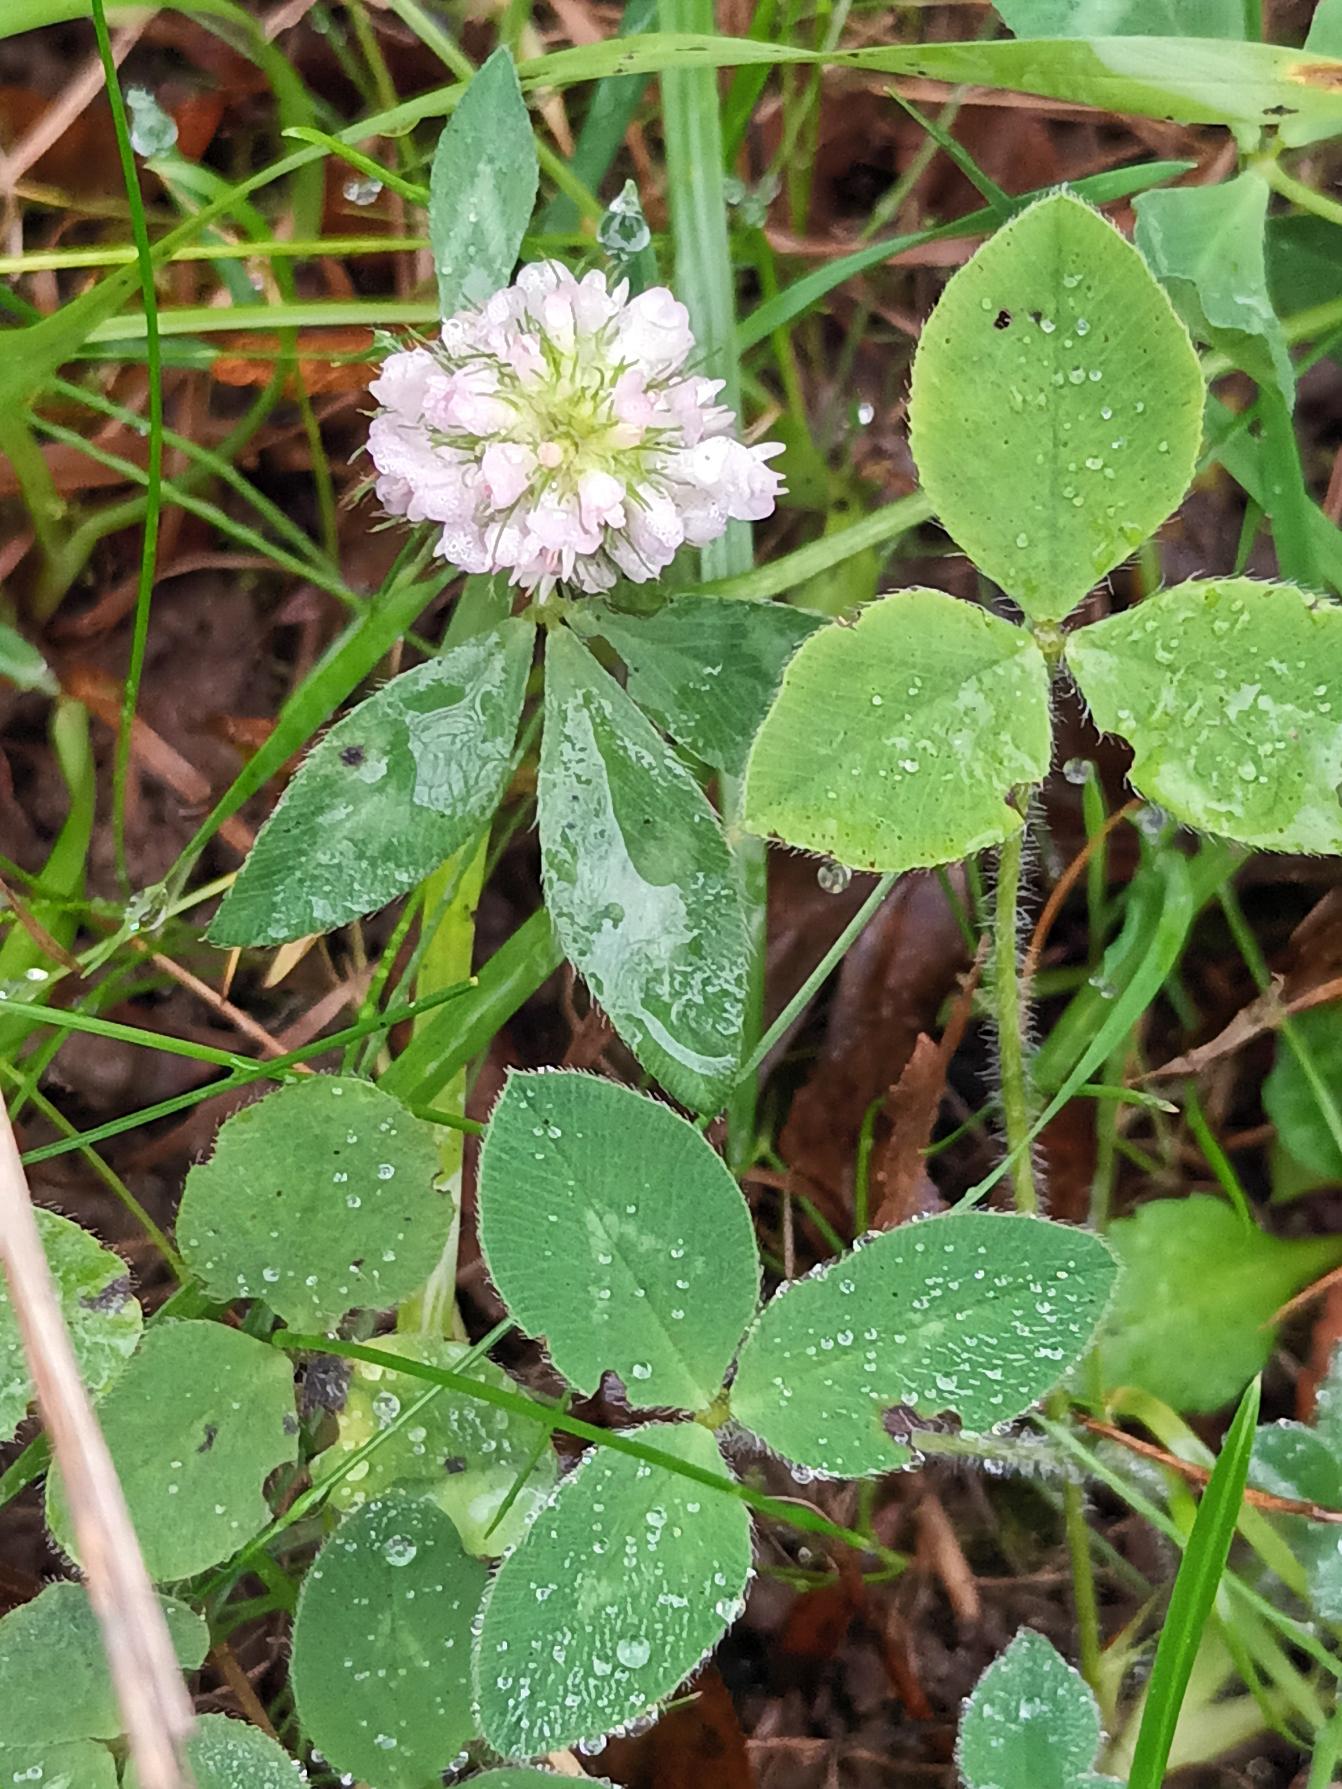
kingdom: Plantae
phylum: Tracheophyta
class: Magnoliopsida
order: Fabales
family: Fabaceae
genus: Trifolium
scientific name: Trifolium pratense
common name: Rød-kløver
